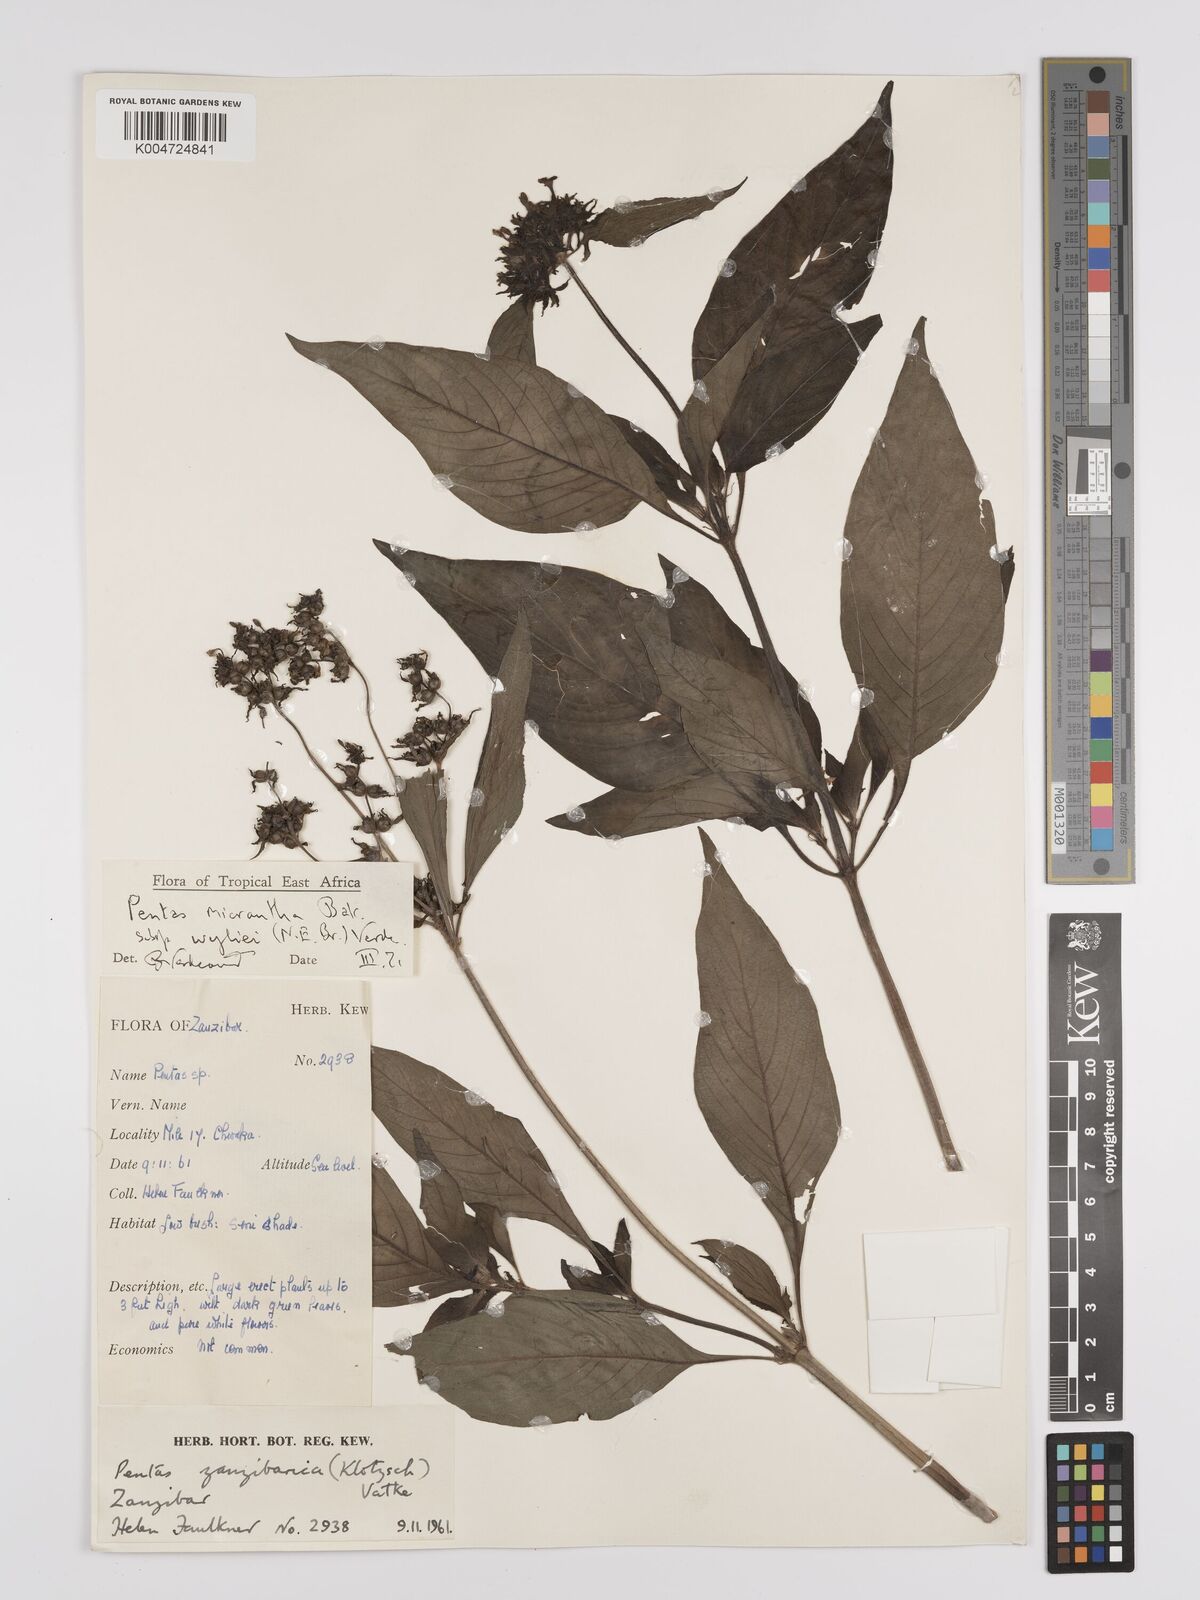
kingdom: Plantae
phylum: Tracheophyta
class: Magnoliopsida
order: Gentianales
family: Rubiaceae
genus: Pentas
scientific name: Pentas micrantha
